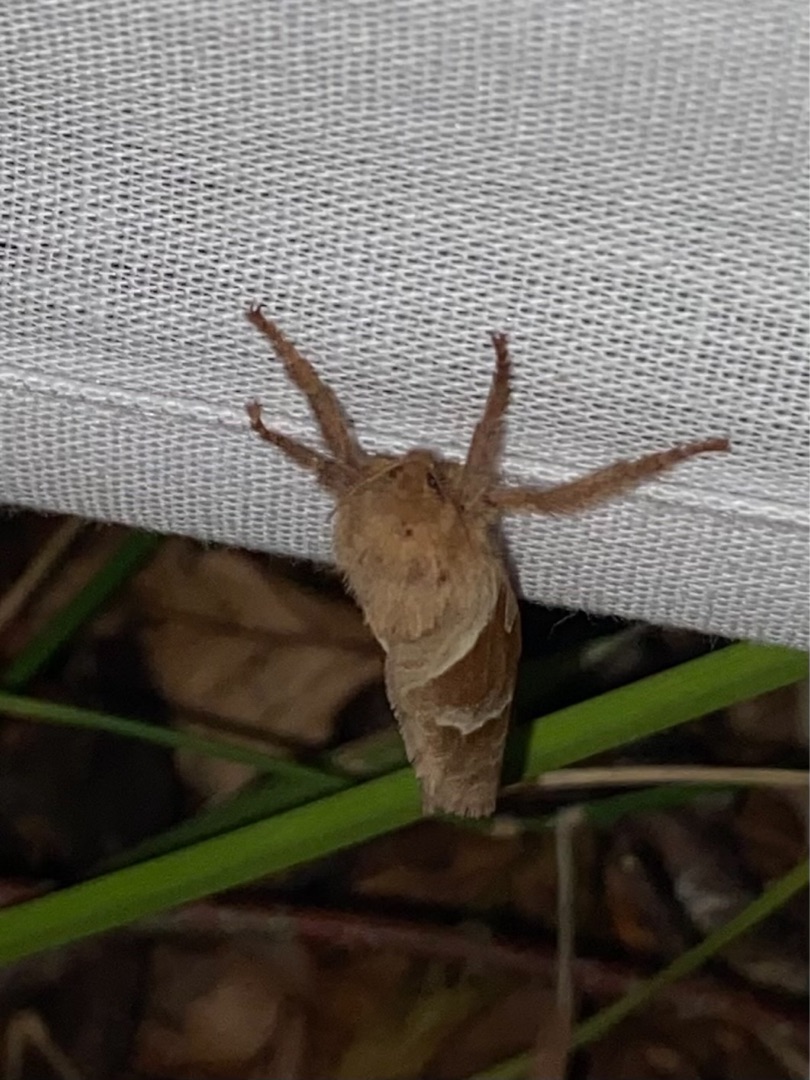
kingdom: Animalia
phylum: Arthropoda
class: Insecta
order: Lepidoptera
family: Hepialidae
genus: Triodia
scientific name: Triodia sylvina
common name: Skræpperodæder
